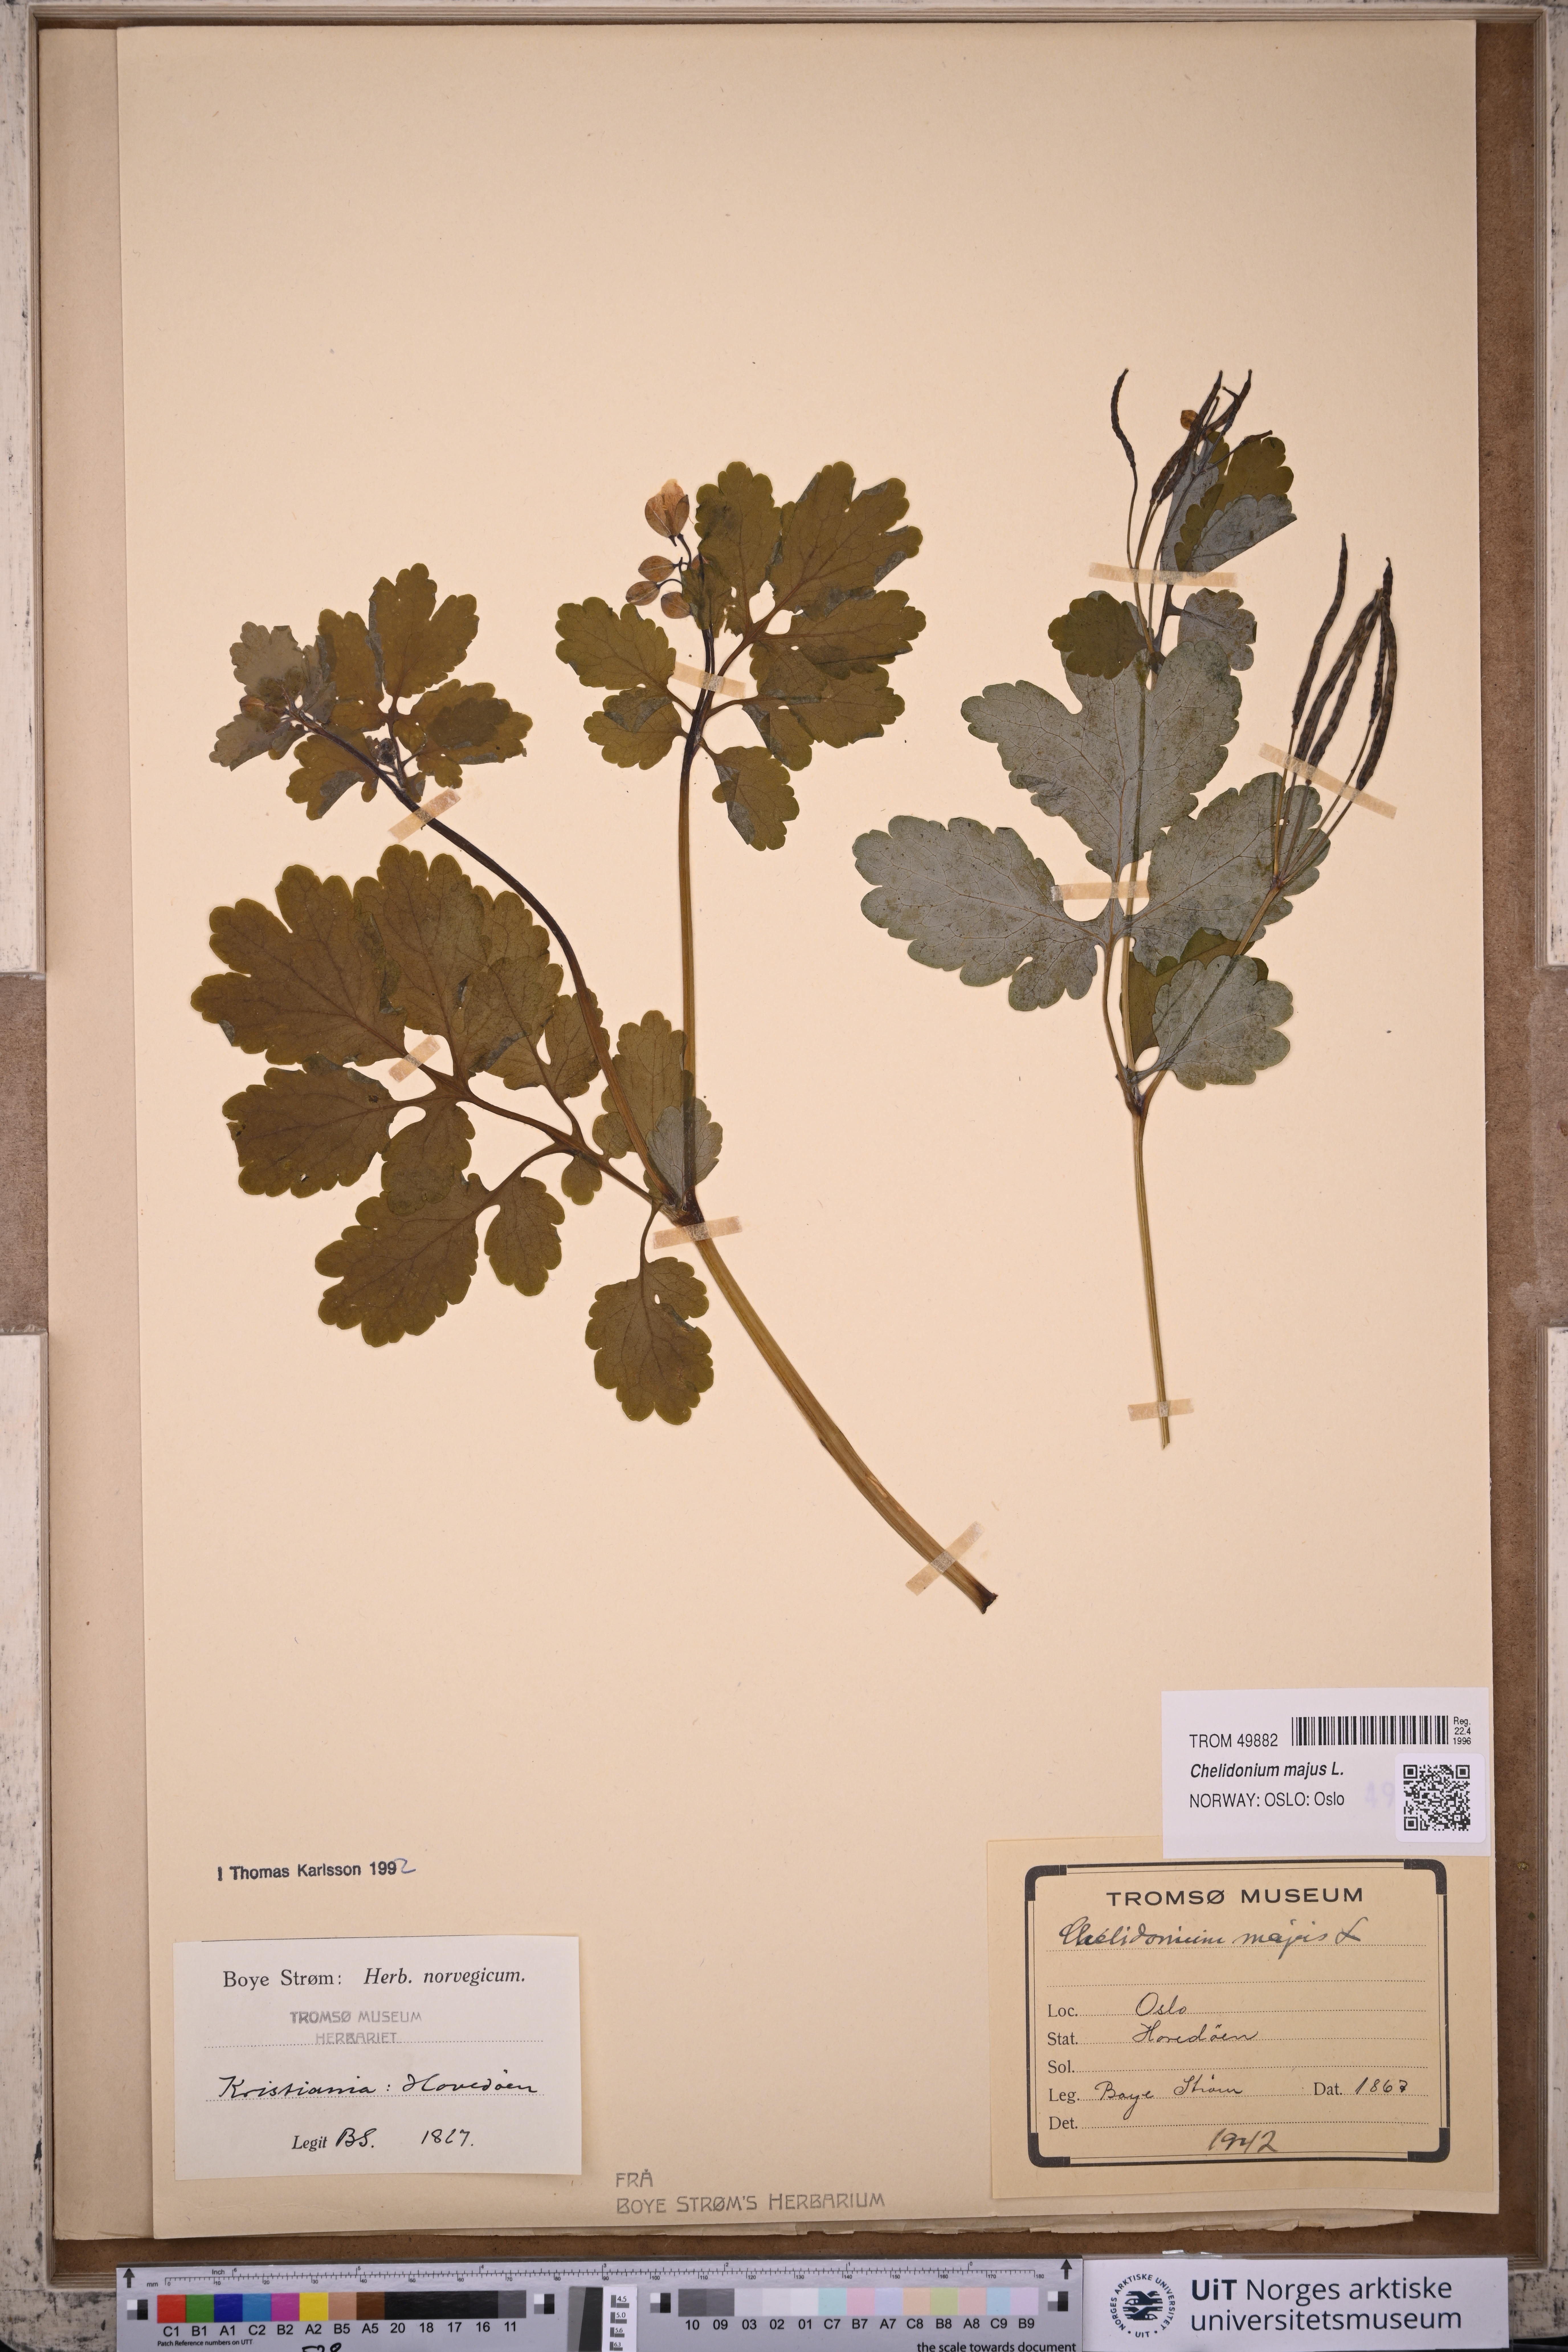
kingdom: Plantae
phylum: Tracheophyta
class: Magnoliopsida
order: Ranunculales
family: Papaveraceae
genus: Chelidonium
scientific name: Chelidonium majus
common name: Greater celandine
